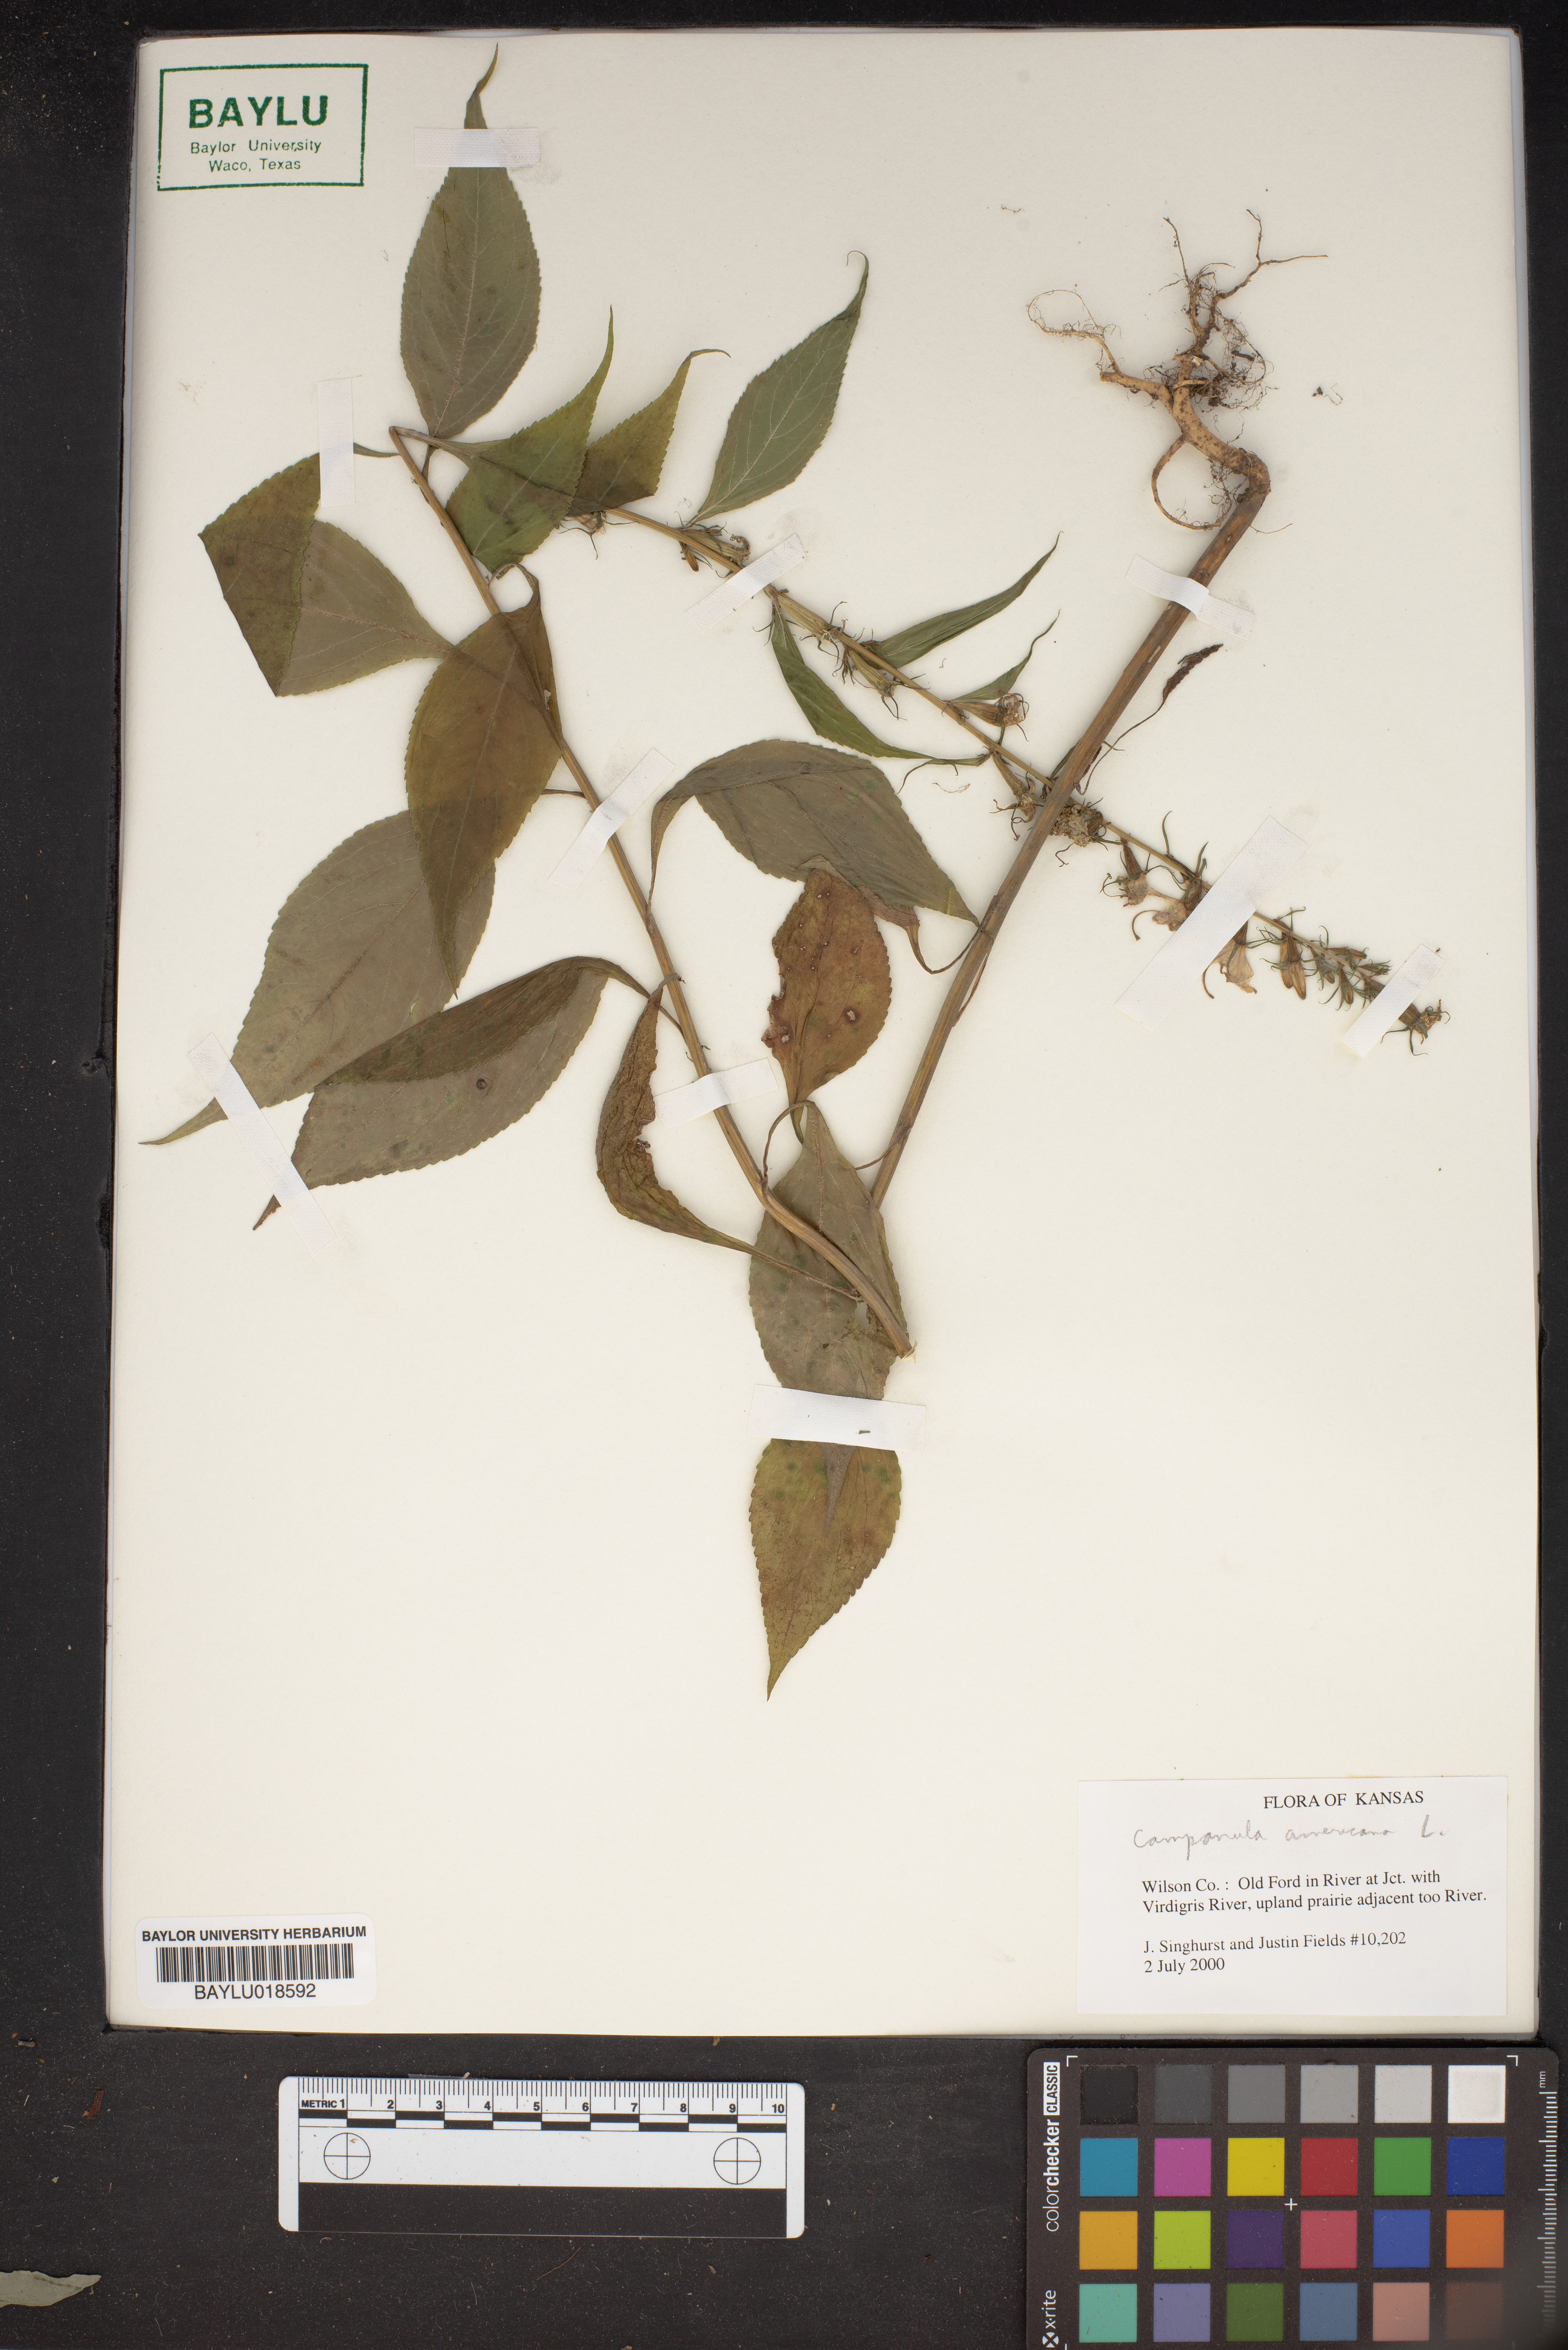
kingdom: Plantae
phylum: Tracheophyta
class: Magnoliopsida
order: Asterales
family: Campanulaceae
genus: Campanula
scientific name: Campanula americana
